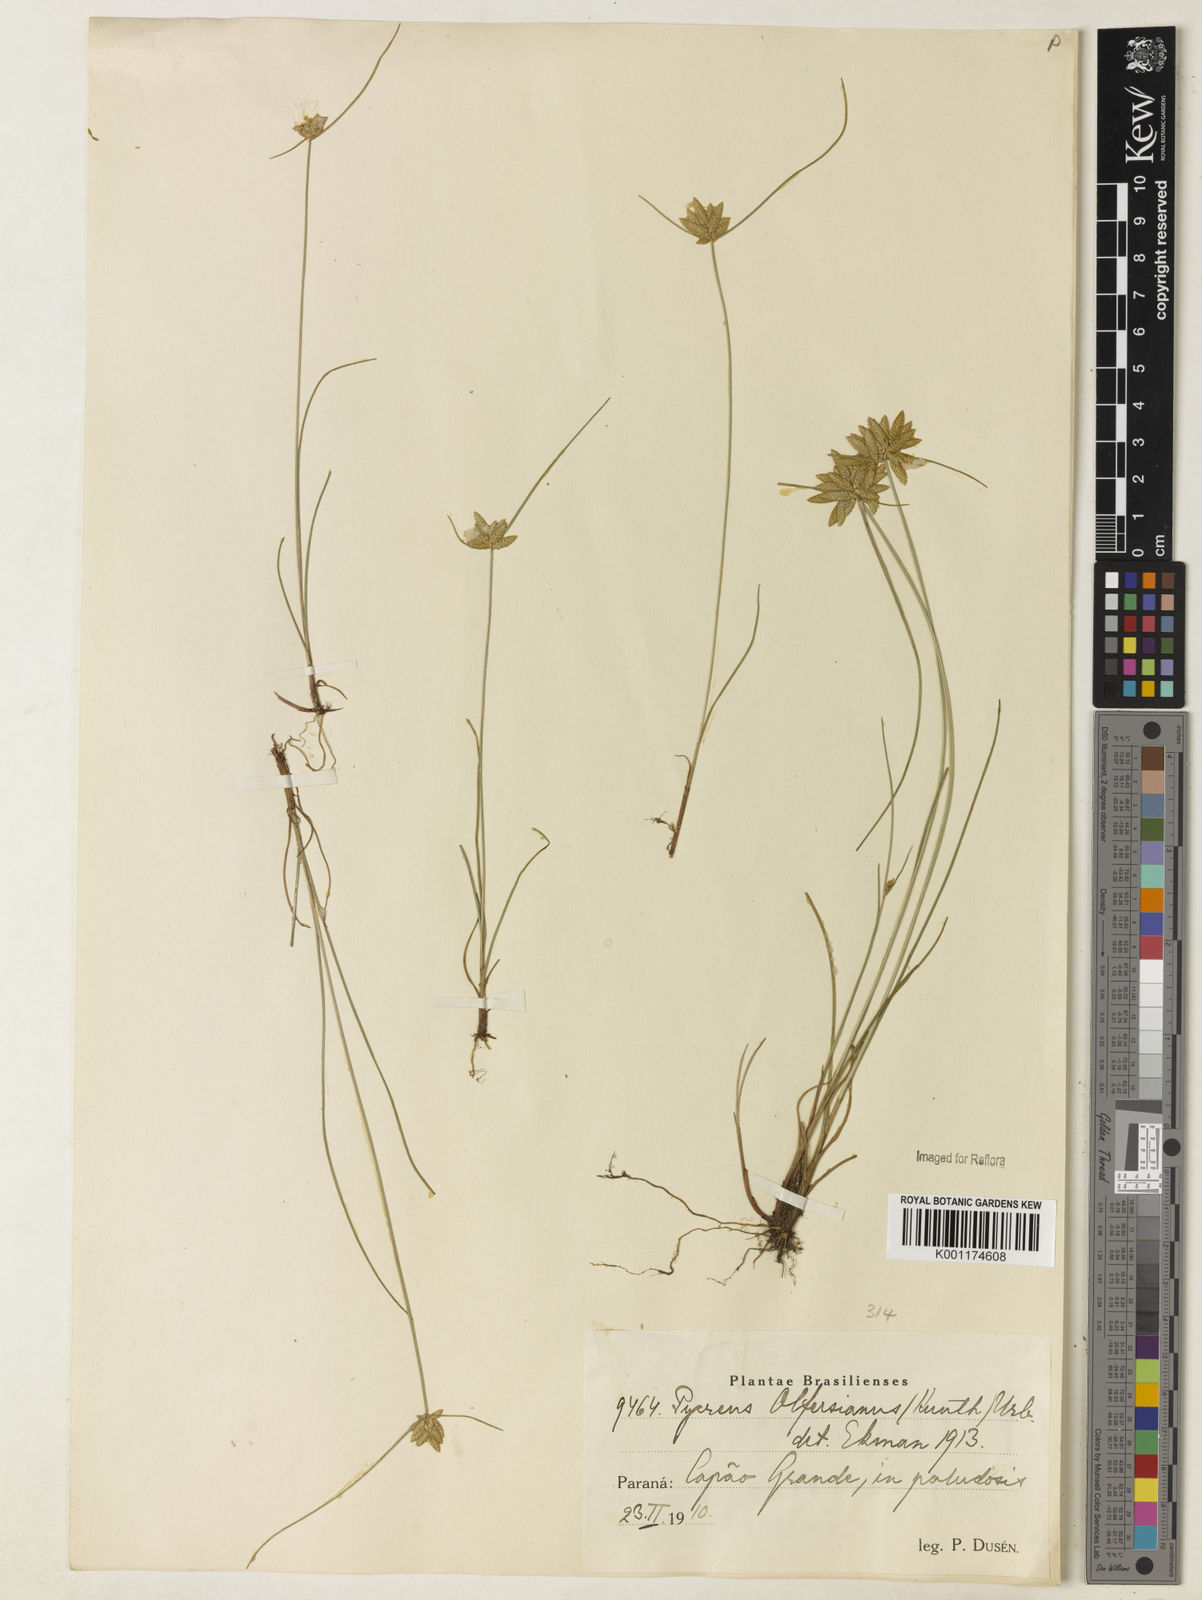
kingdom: Plantae
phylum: Tracheophyta
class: Liliopsida
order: Poales
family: Cyperaceae
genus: Cyperus
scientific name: Cyperus
